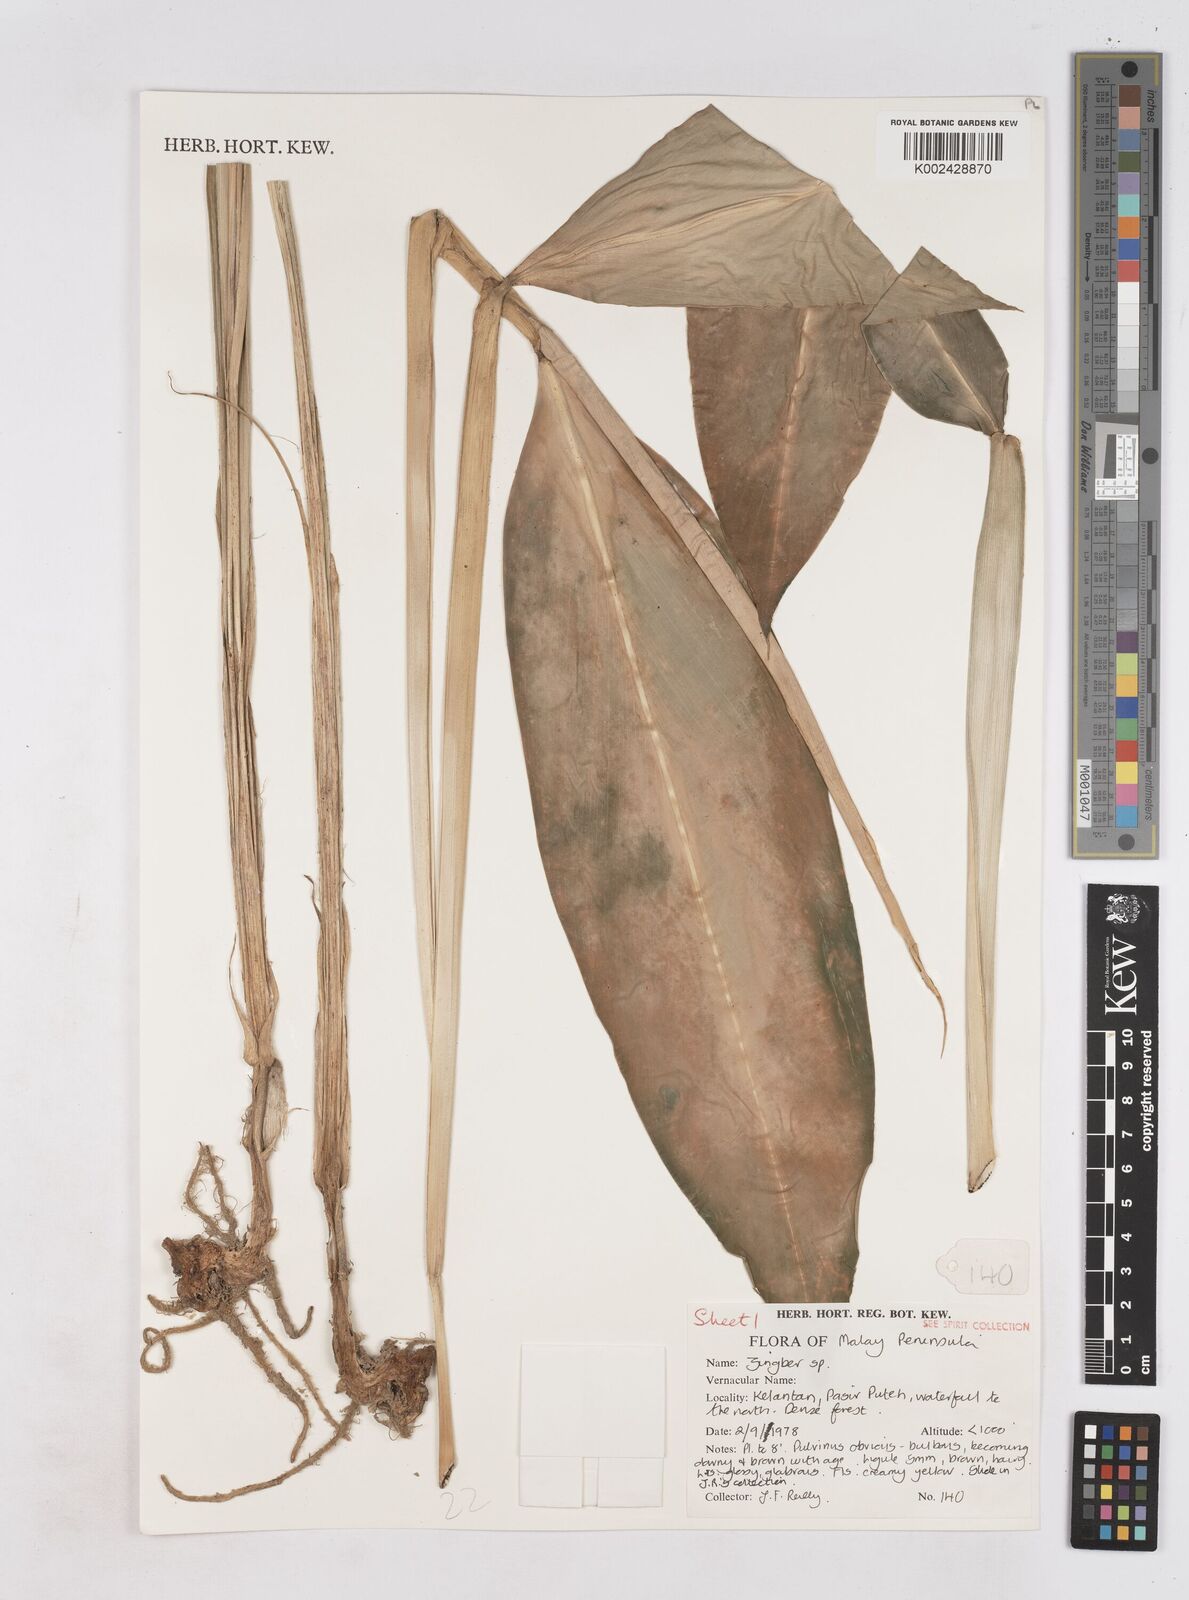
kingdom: Plantae
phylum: Tracheophyta
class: Liliopsida
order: Zingiberales
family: Zingiberaceae
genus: Zingiber
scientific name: Zingiber
